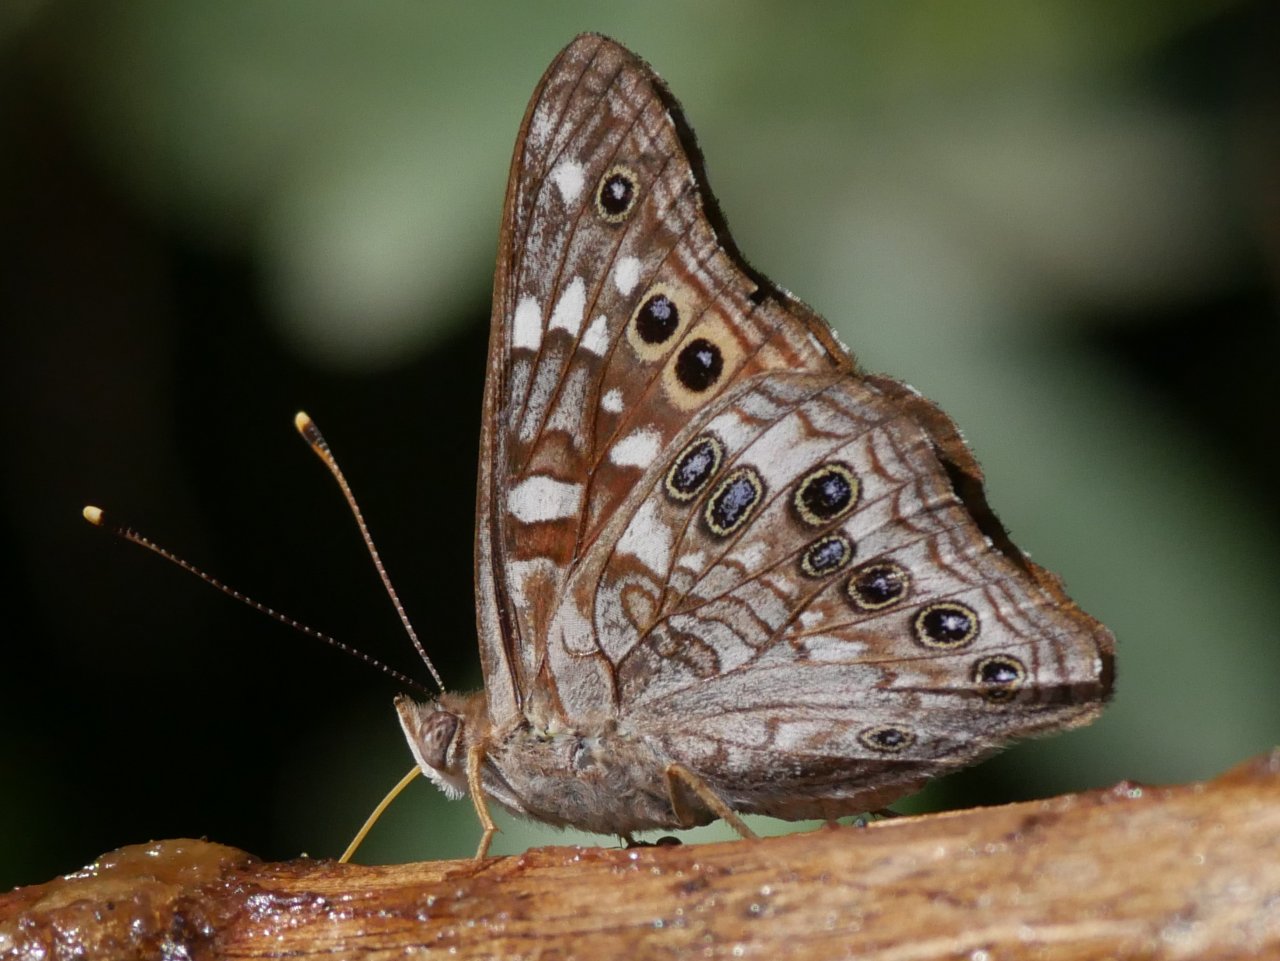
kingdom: Animalia
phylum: Arthropoda
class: Insecta
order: Lepidoptera
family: Nymphalidae
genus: Asterocampa
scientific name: Asterocampa celtis
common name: Hackberry Emperor
